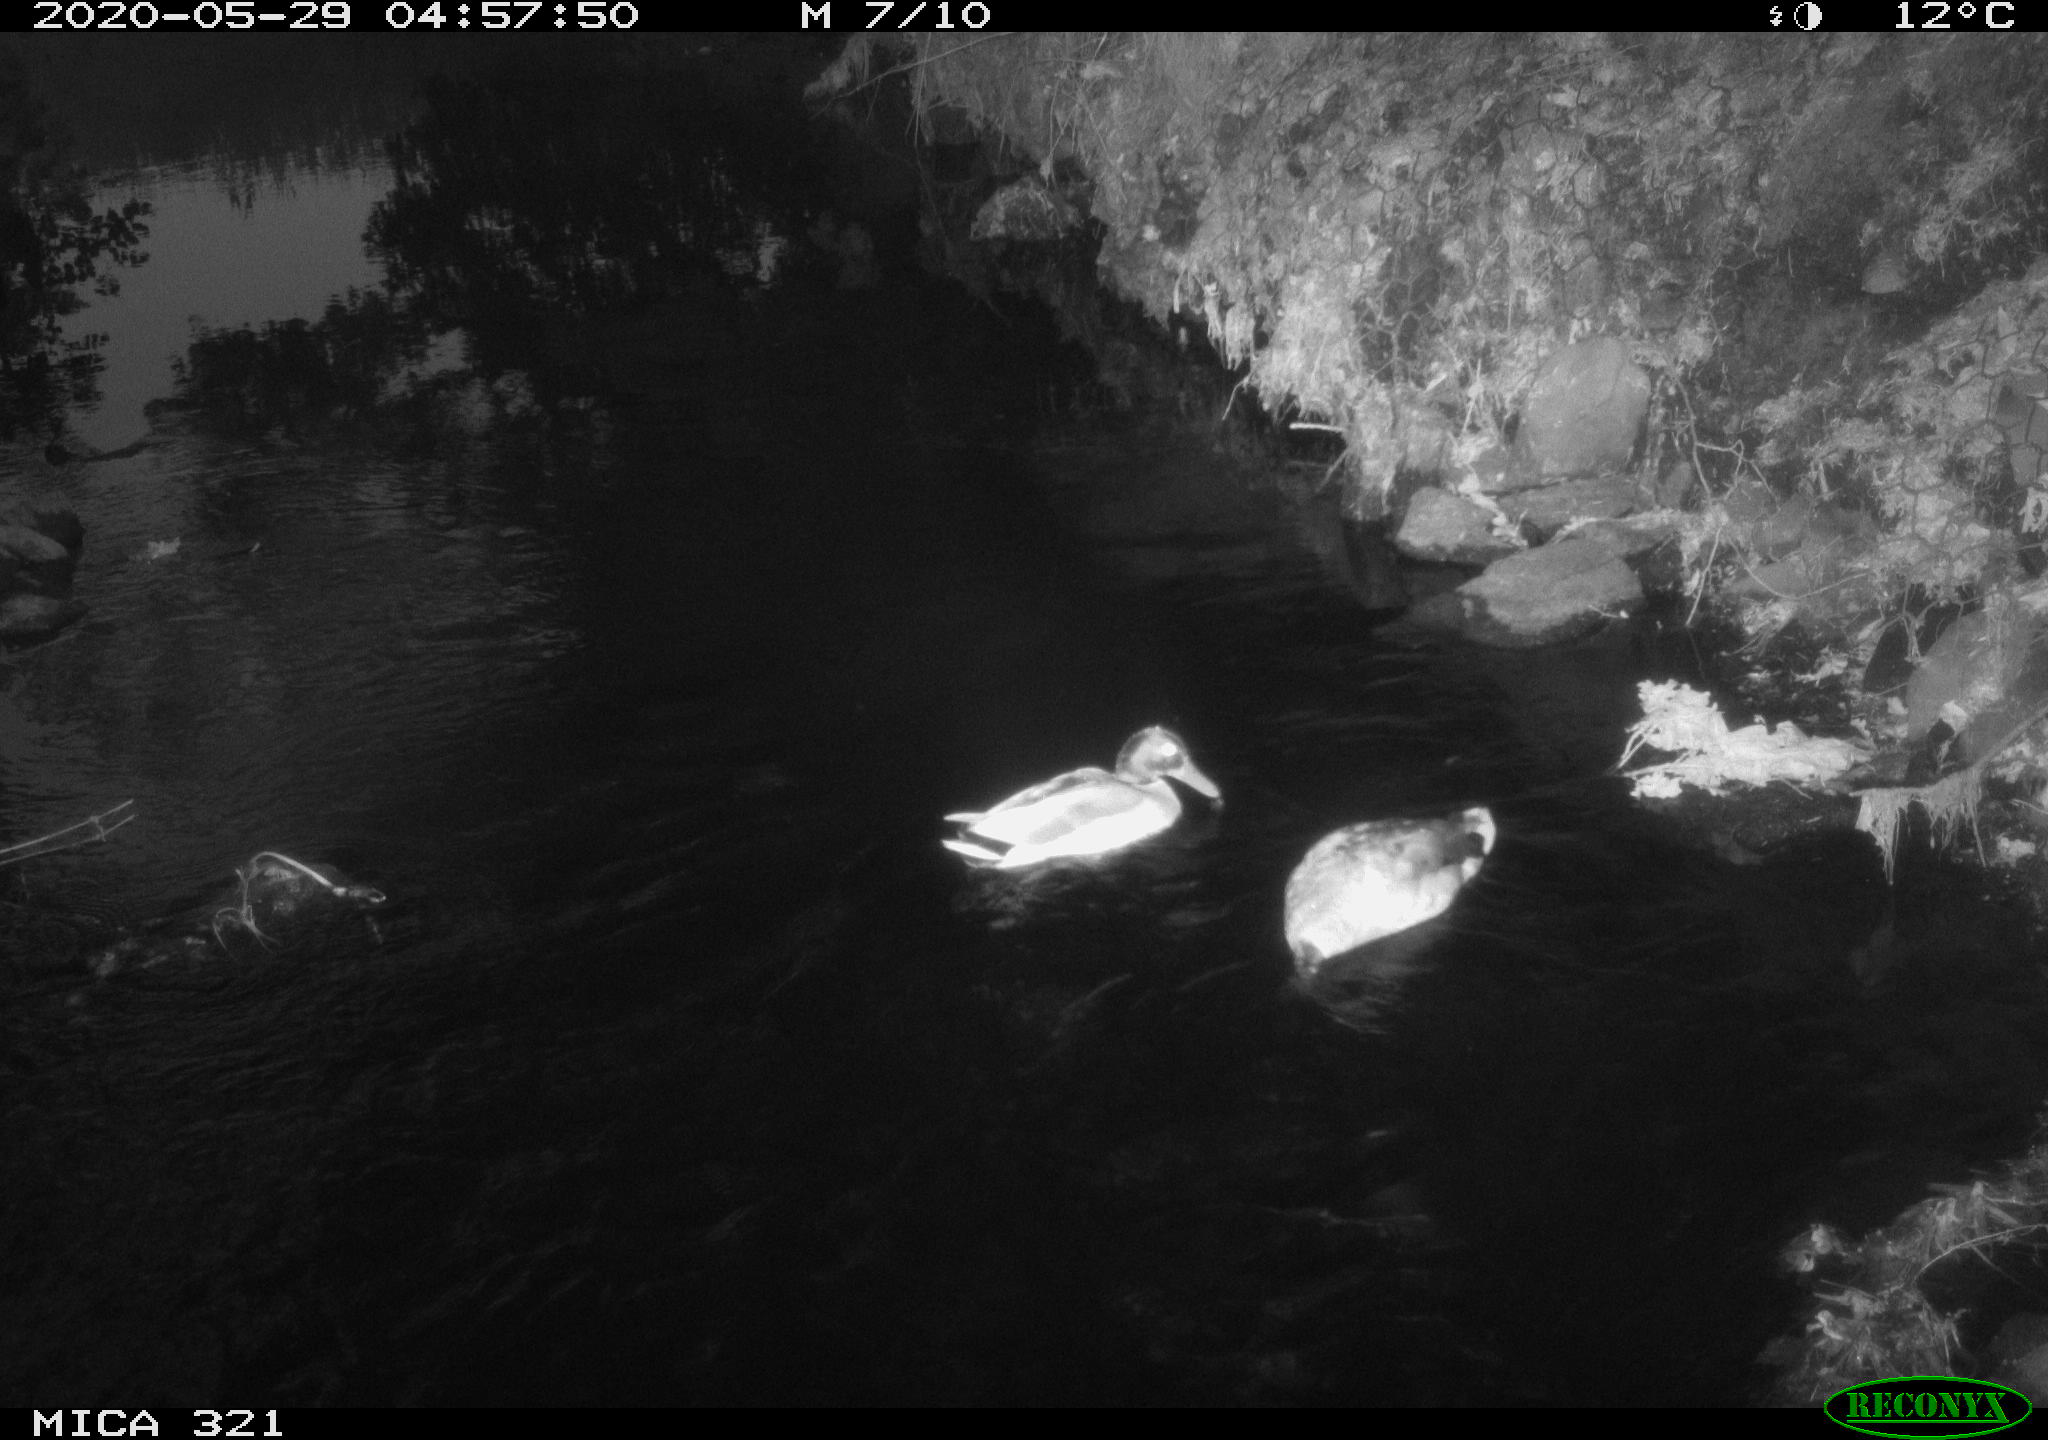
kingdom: Animalia
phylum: Chordata
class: Aves
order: Anseriformes
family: Anatidae
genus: Anas
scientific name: Anas platyrhynchos
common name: Mallard
